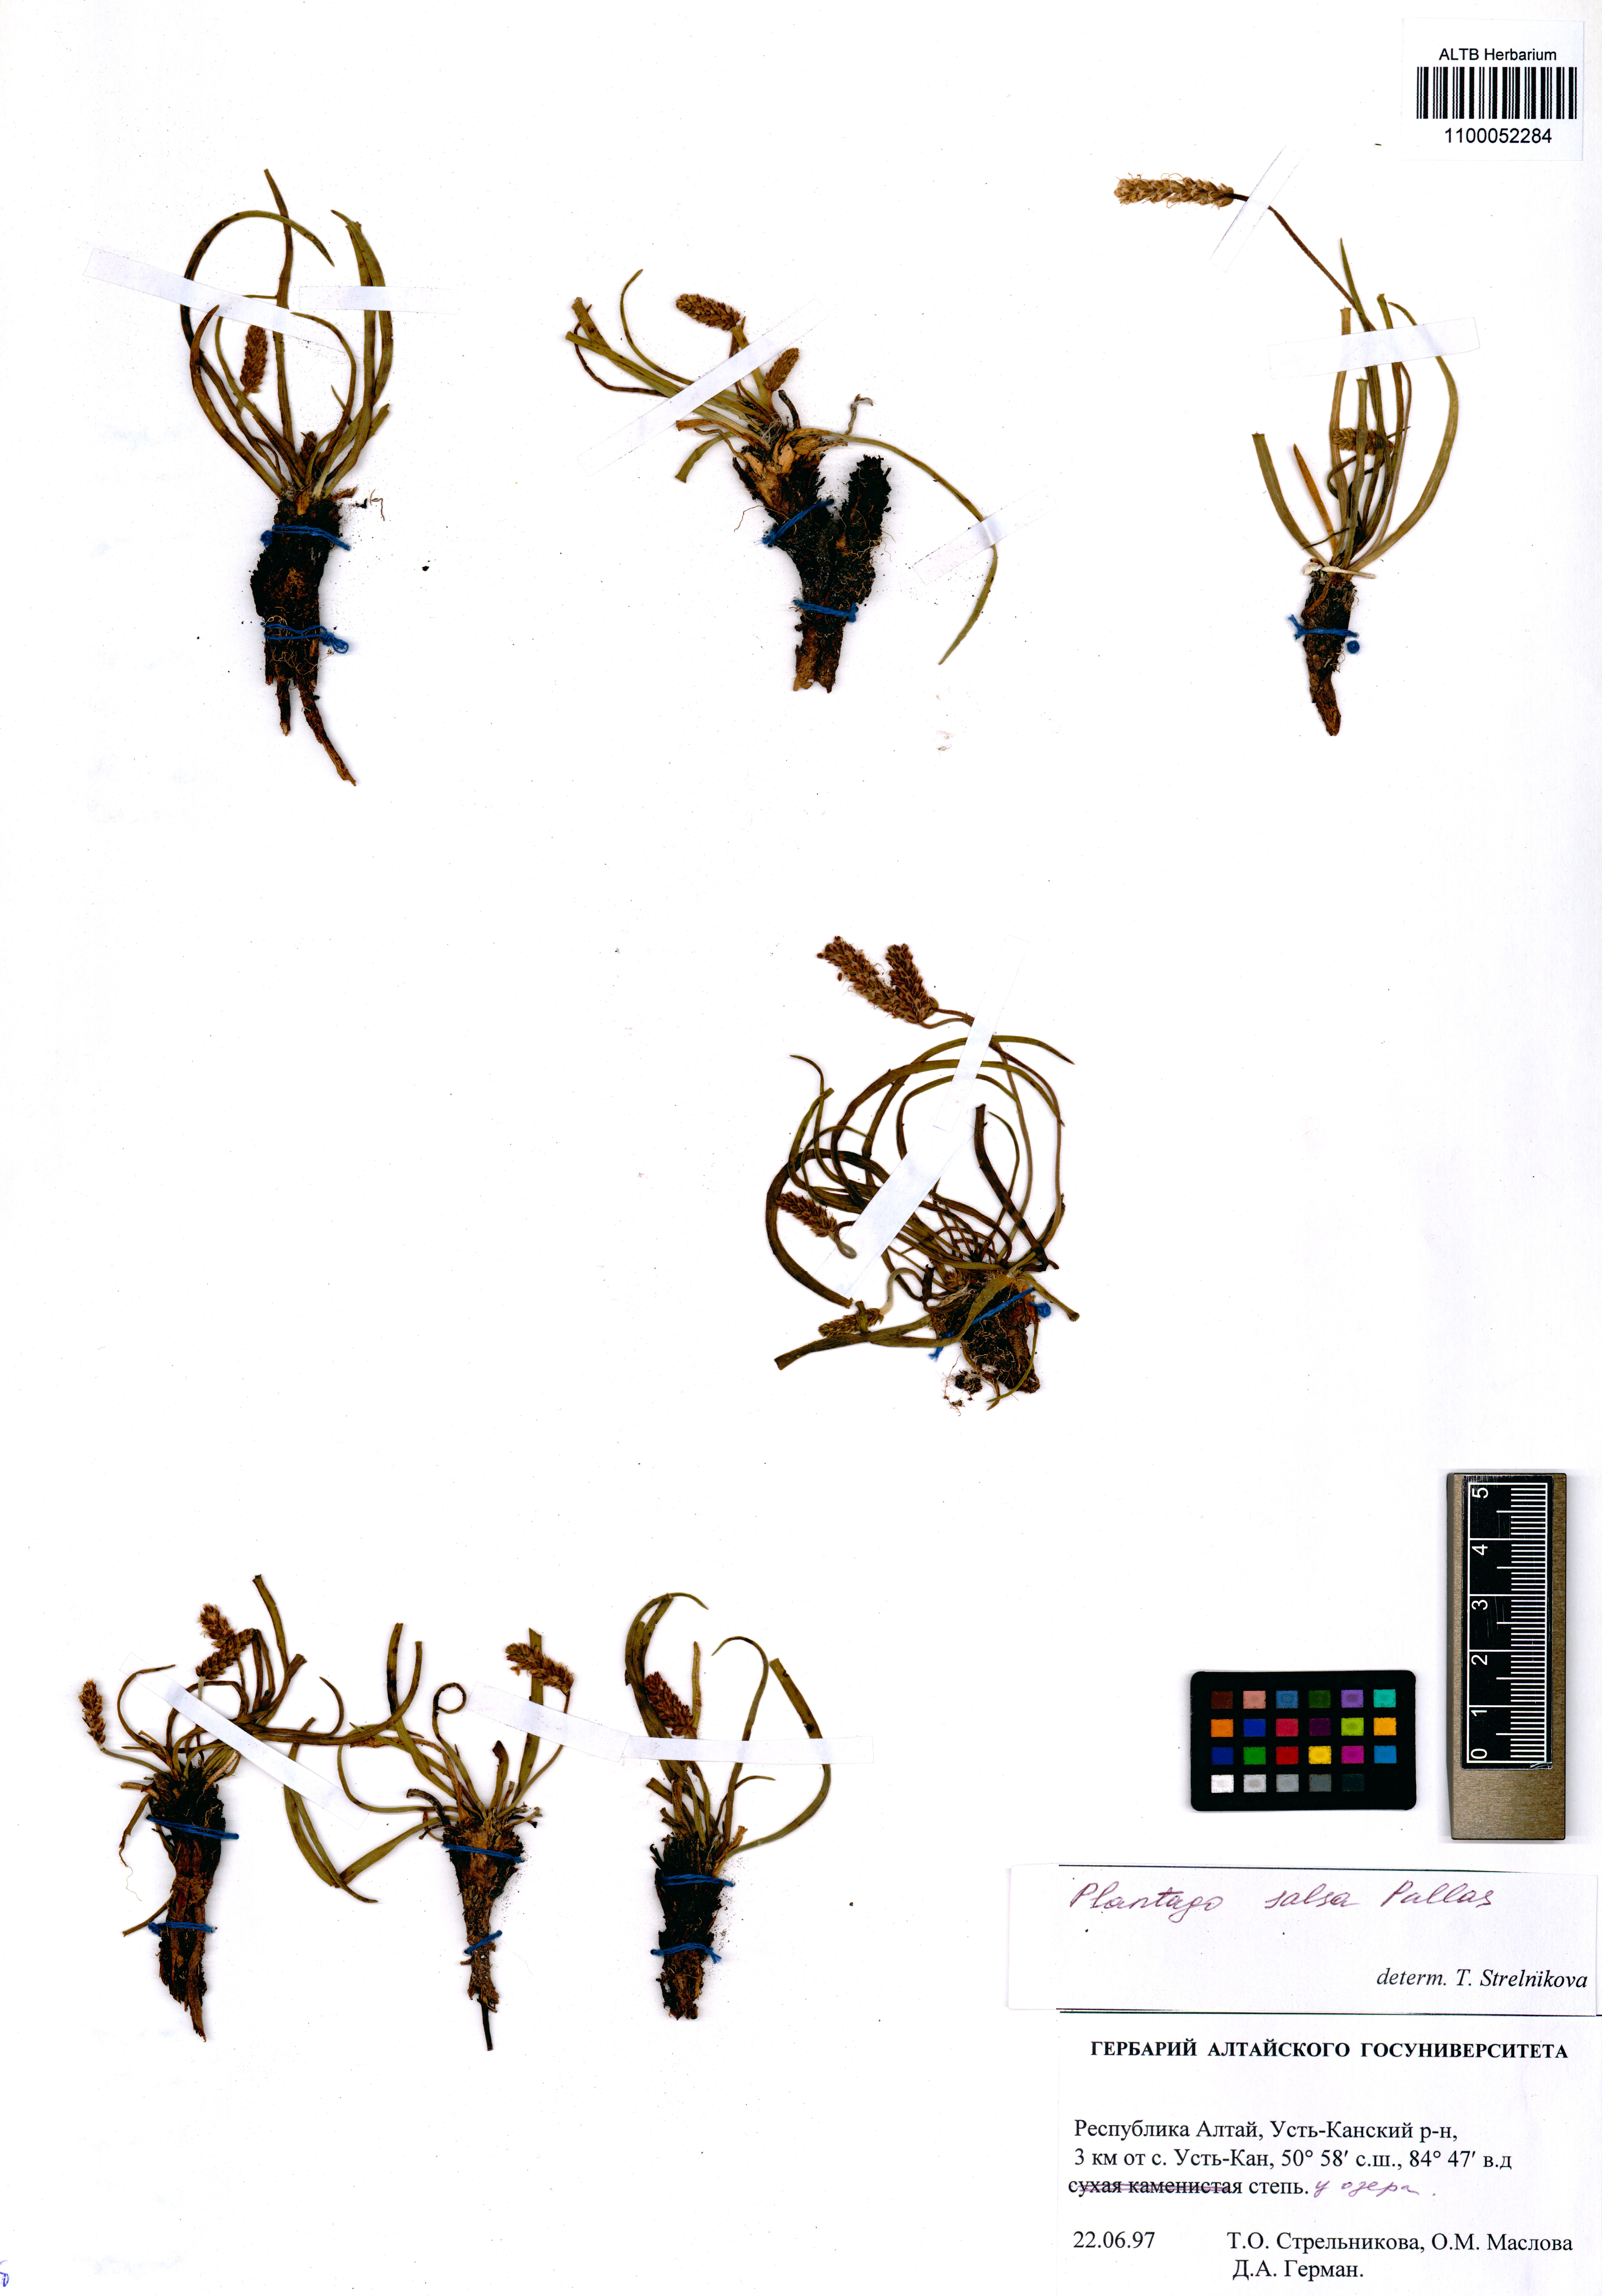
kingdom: Plantae
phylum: Tracheophyta
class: Magnoliopsida
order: Lamiales
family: Plantaginaceae
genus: Plantago
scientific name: Plantago salsa
